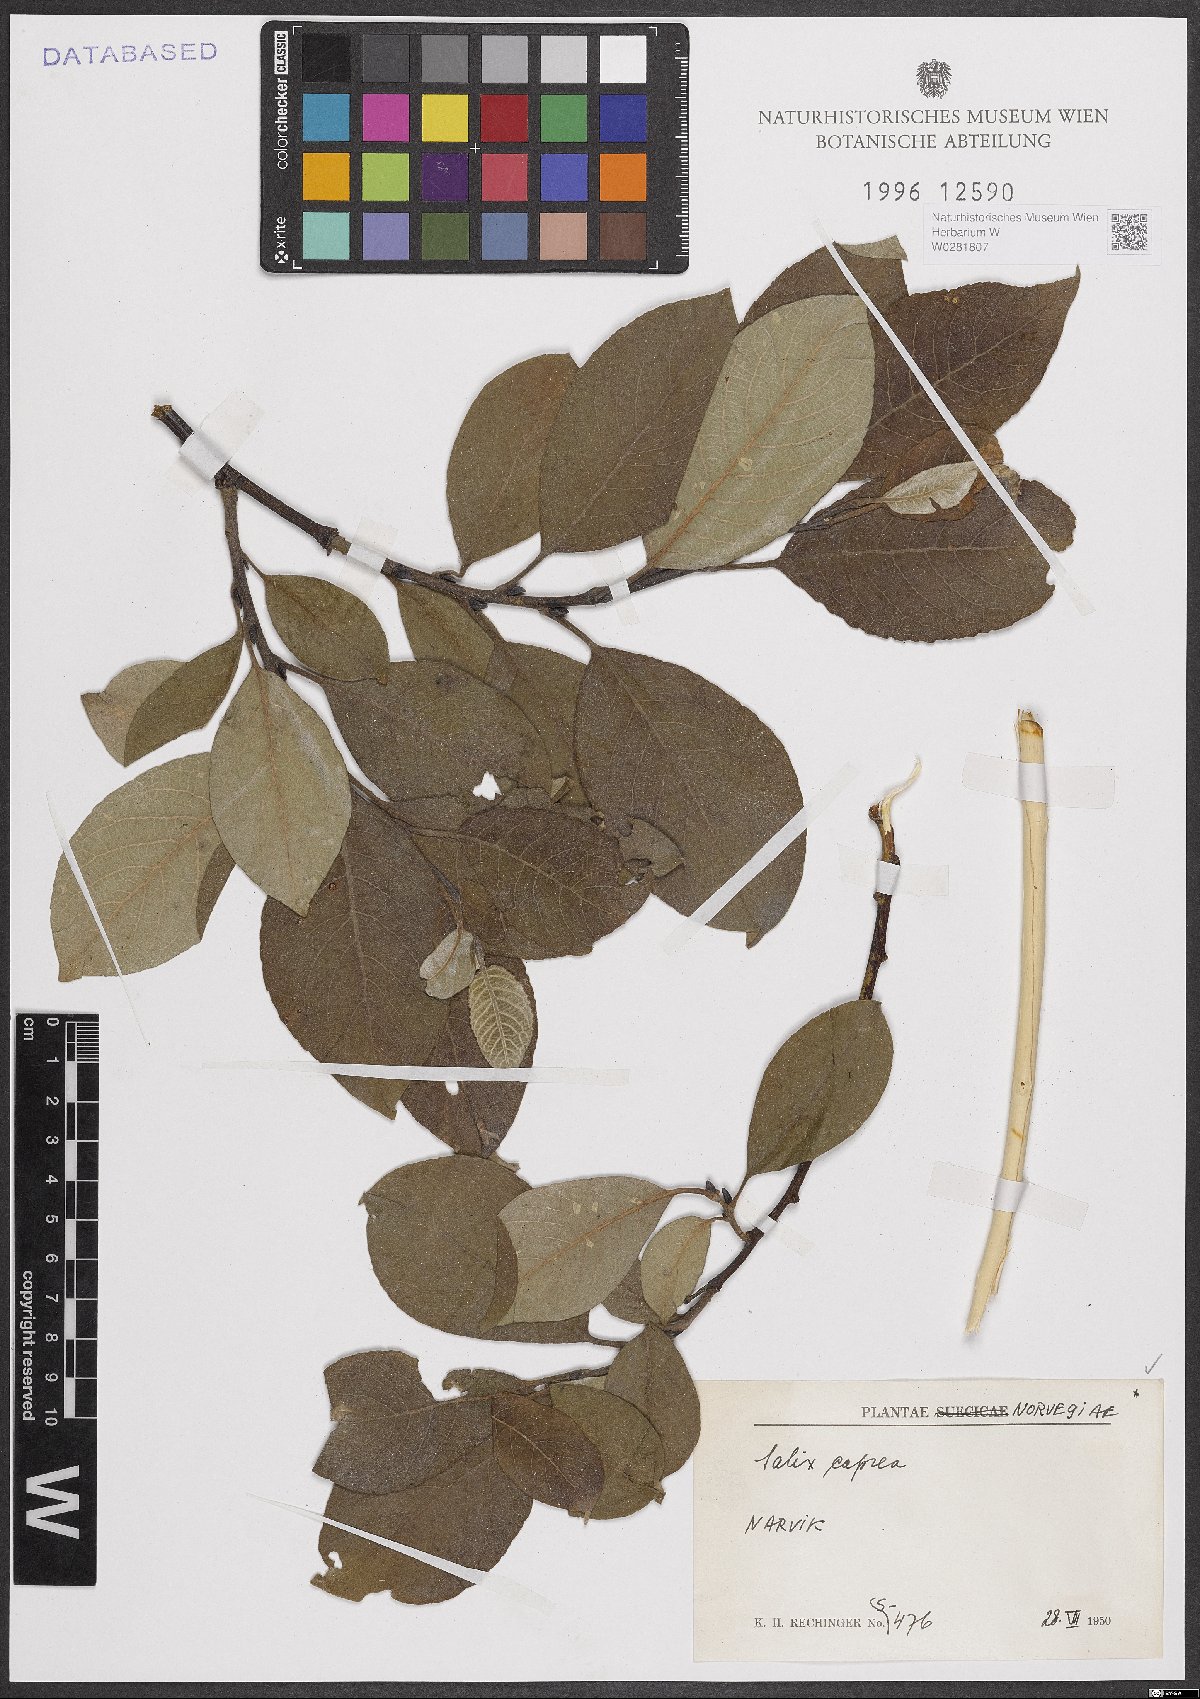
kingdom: Plantae
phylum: Tracheophyta
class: Magnoliopsida
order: Malpighiales
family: Salicaceae
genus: Salix
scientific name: Salix caprea
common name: Goat willow
